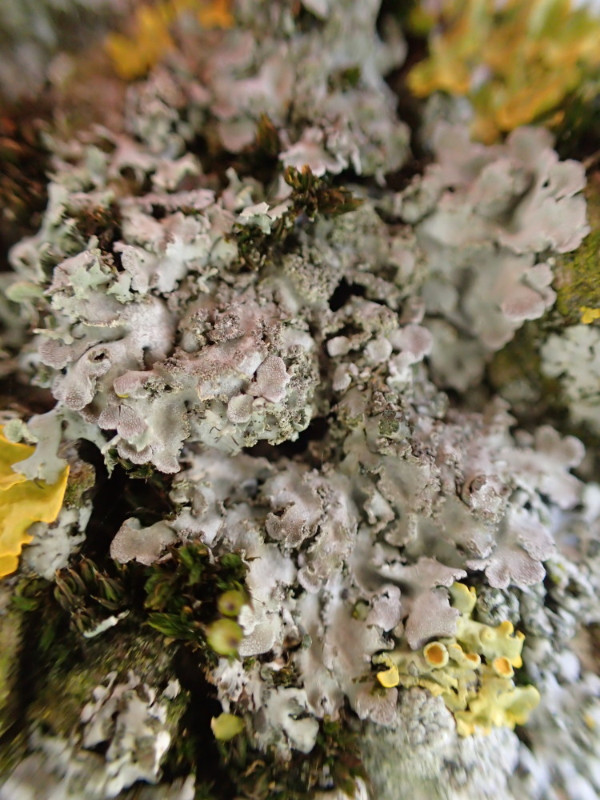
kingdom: Fungi
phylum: Ascomycota
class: Lecanoromycetes
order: Caliciales
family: Physciaceae
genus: Physconia
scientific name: Physconia perisidiosa
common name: liden dugrosetlav
